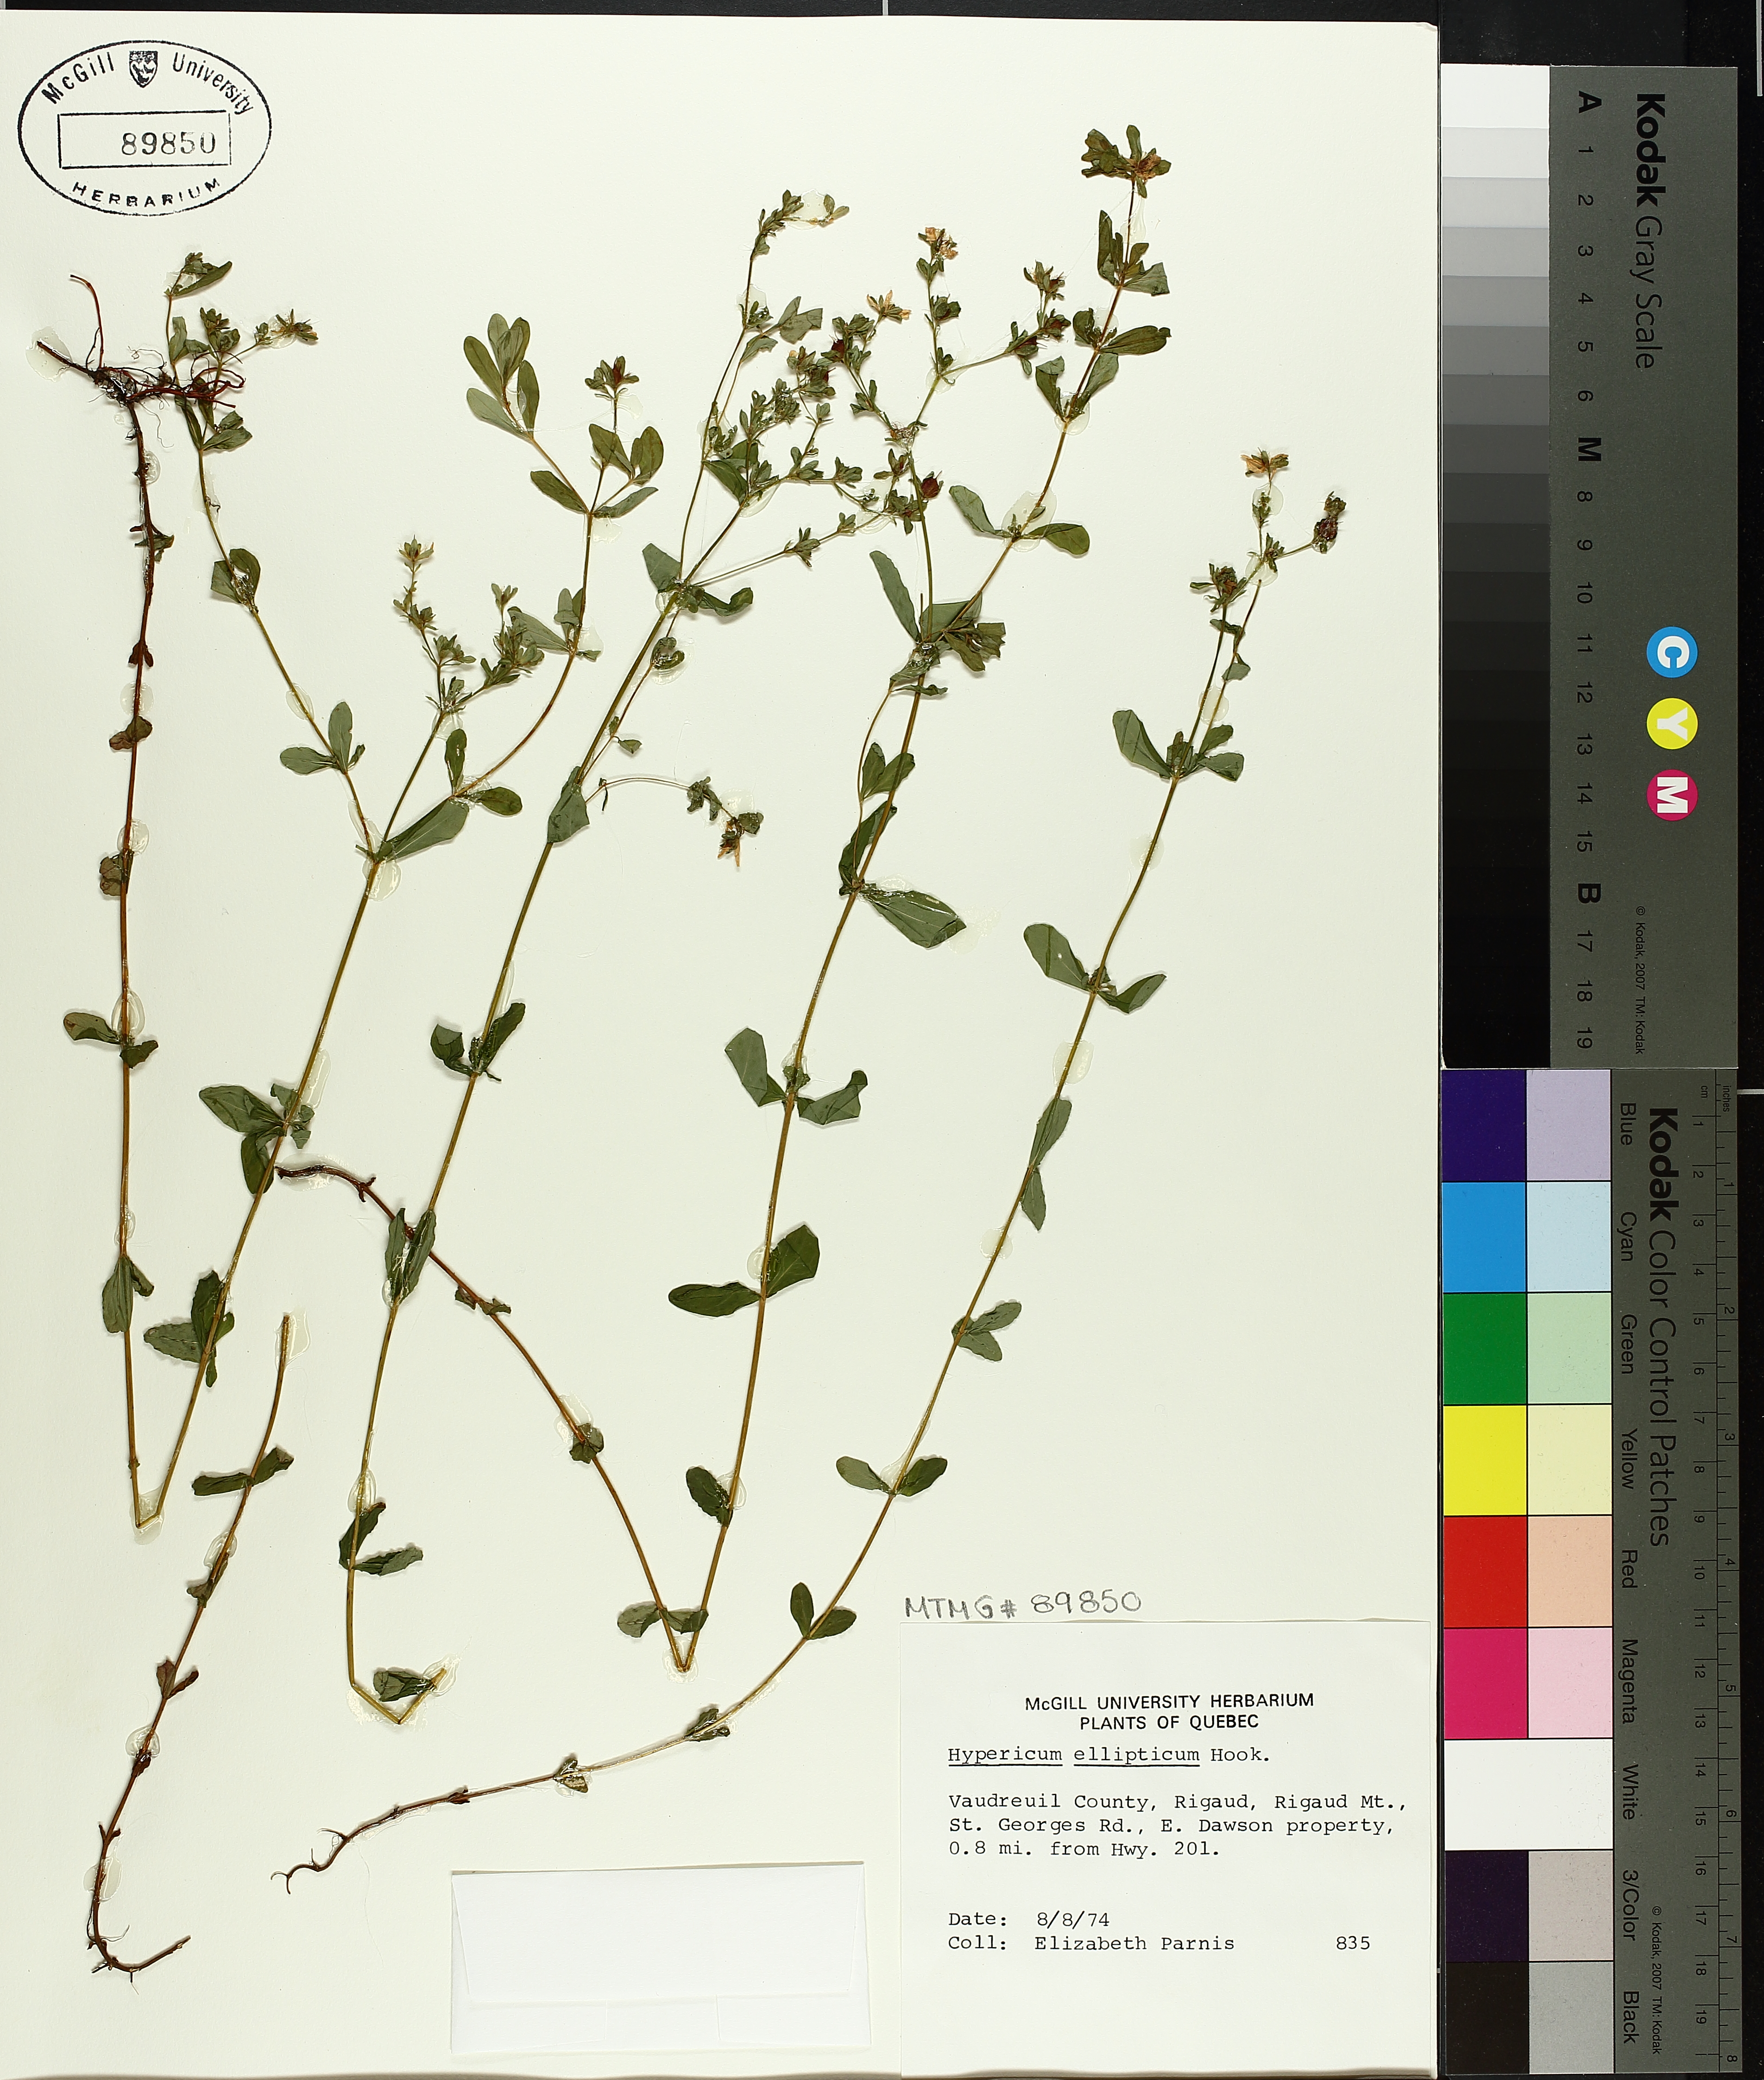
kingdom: Plantae
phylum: Tracheophyta
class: Magnoliopsida
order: Malpighiales
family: Hypericaceae
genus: Hypericum
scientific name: Hypericum ellipticum
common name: Elliptic st. john's-wort
